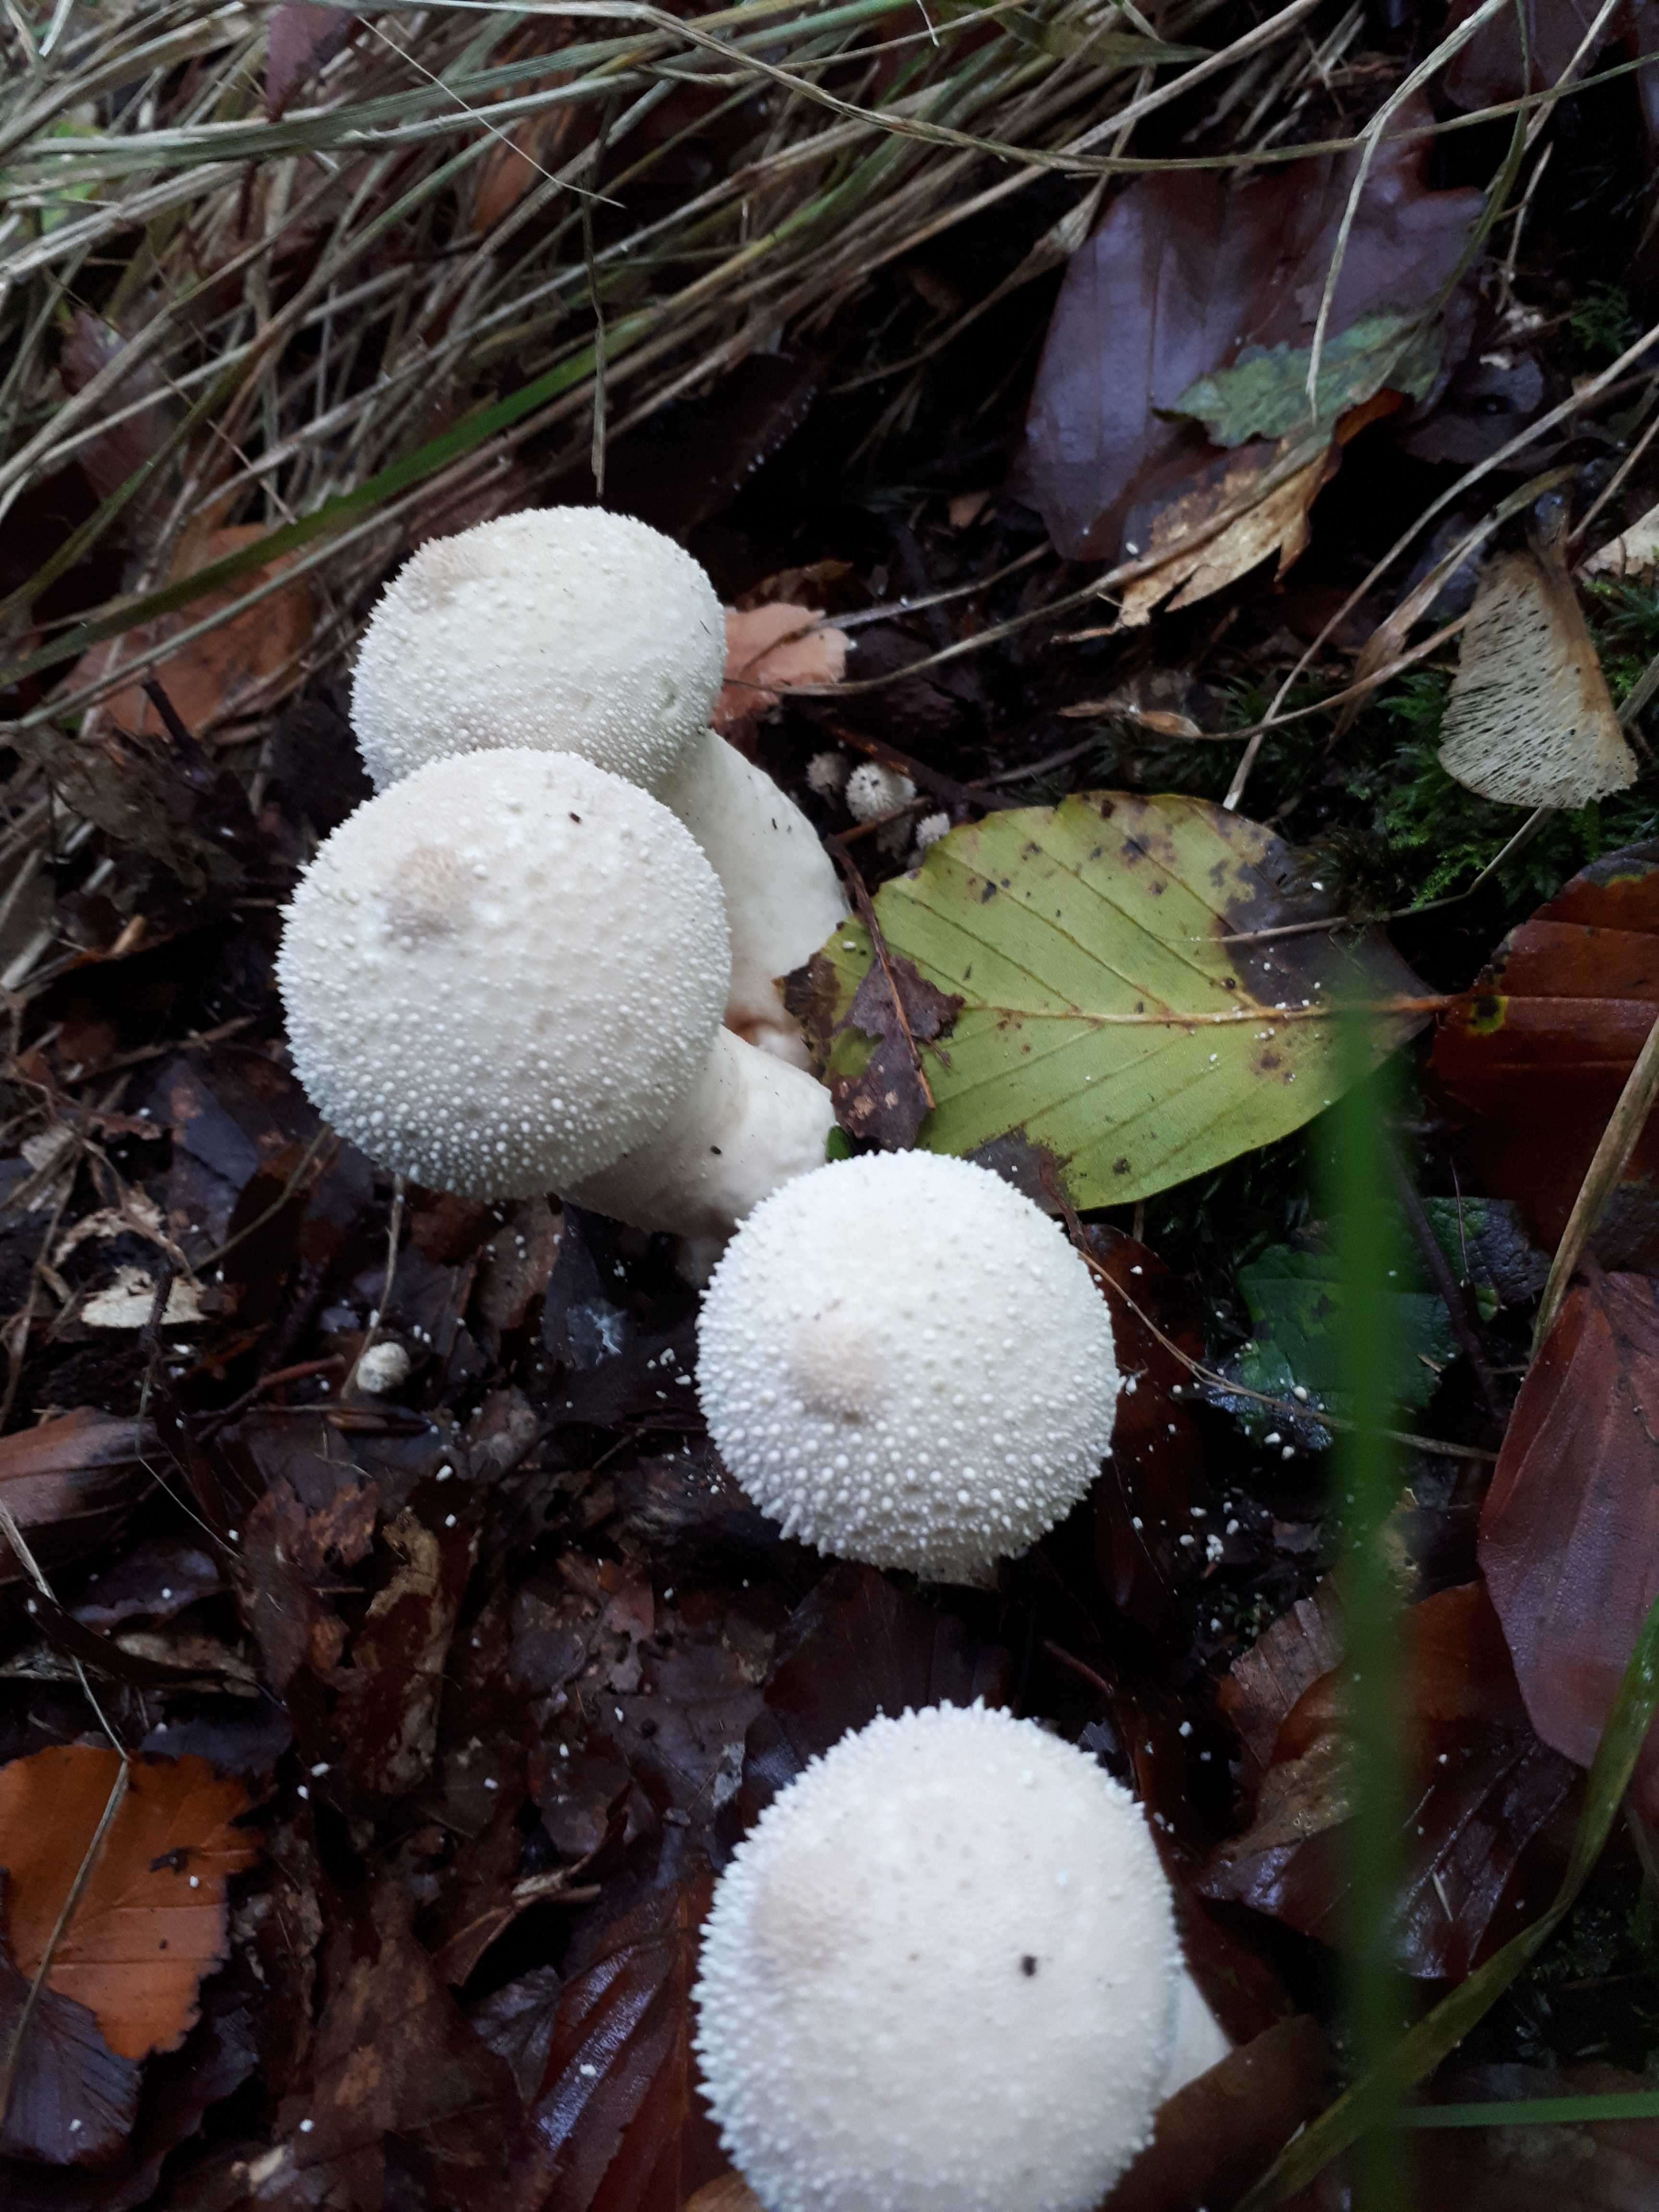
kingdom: Fungi
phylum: Basidiomycota
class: Agaricomycetes
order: Agaricales
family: Lycoperdaceae
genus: Lycoperdon
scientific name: Lycoperdon perlatum
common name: krystal-støvbold
